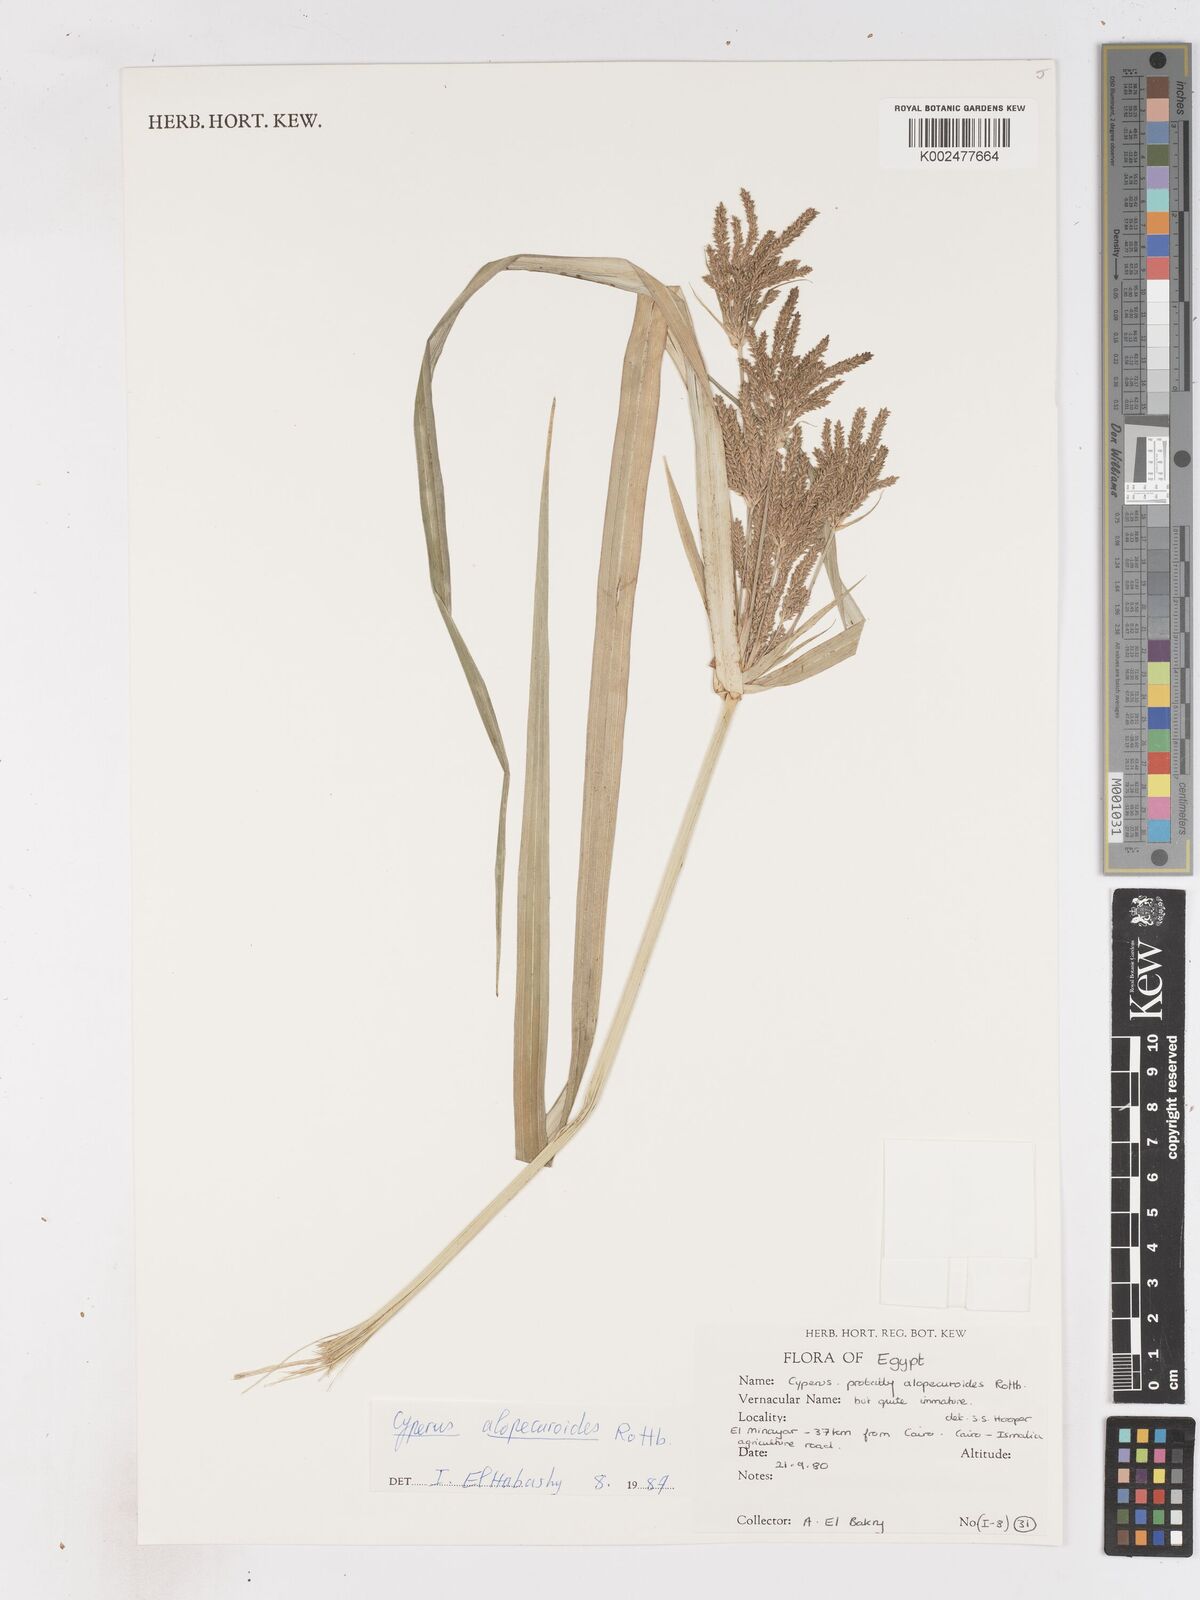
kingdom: Plantae
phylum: Tracheophyta
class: Liliopsida
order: Poales
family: Cyperaceae
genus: Cyperus
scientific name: Cyperus alopecuroides
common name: Foxtail flatsedge
